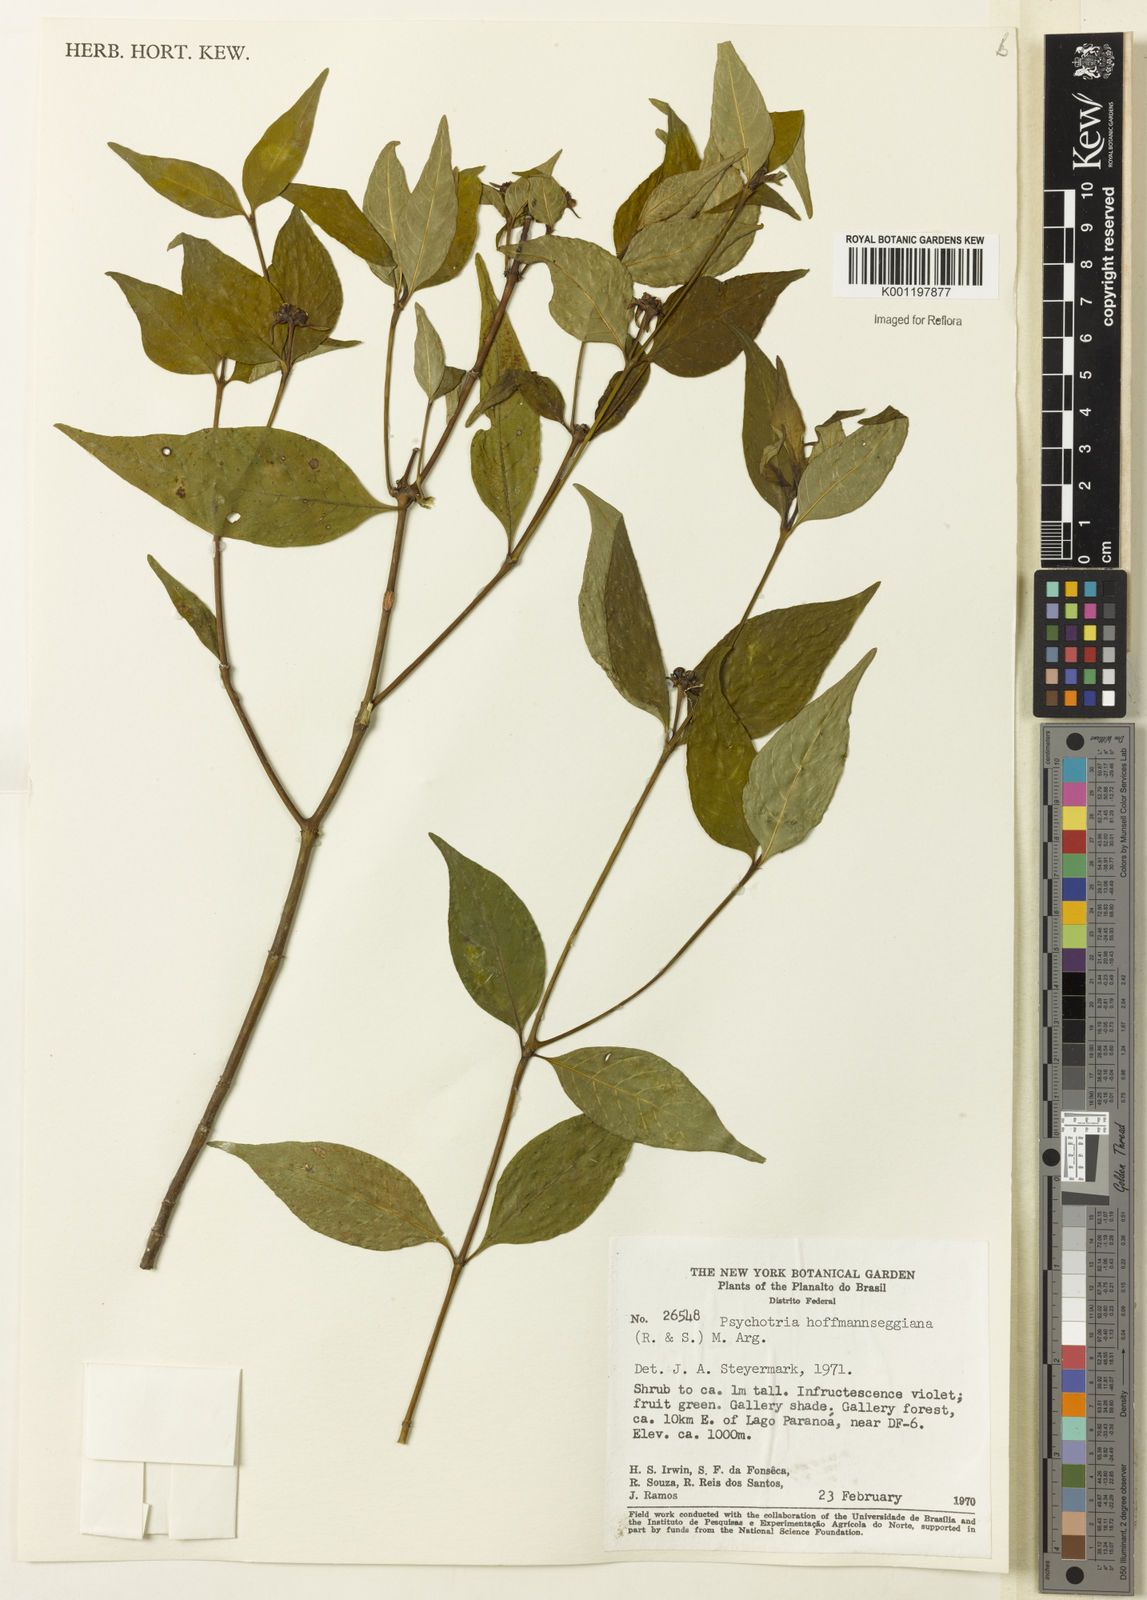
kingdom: Plantae
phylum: Tracheophyta
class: Magnoliopsida
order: Gentianales
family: Rubiaceae
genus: Psychotria
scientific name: Psychotria
